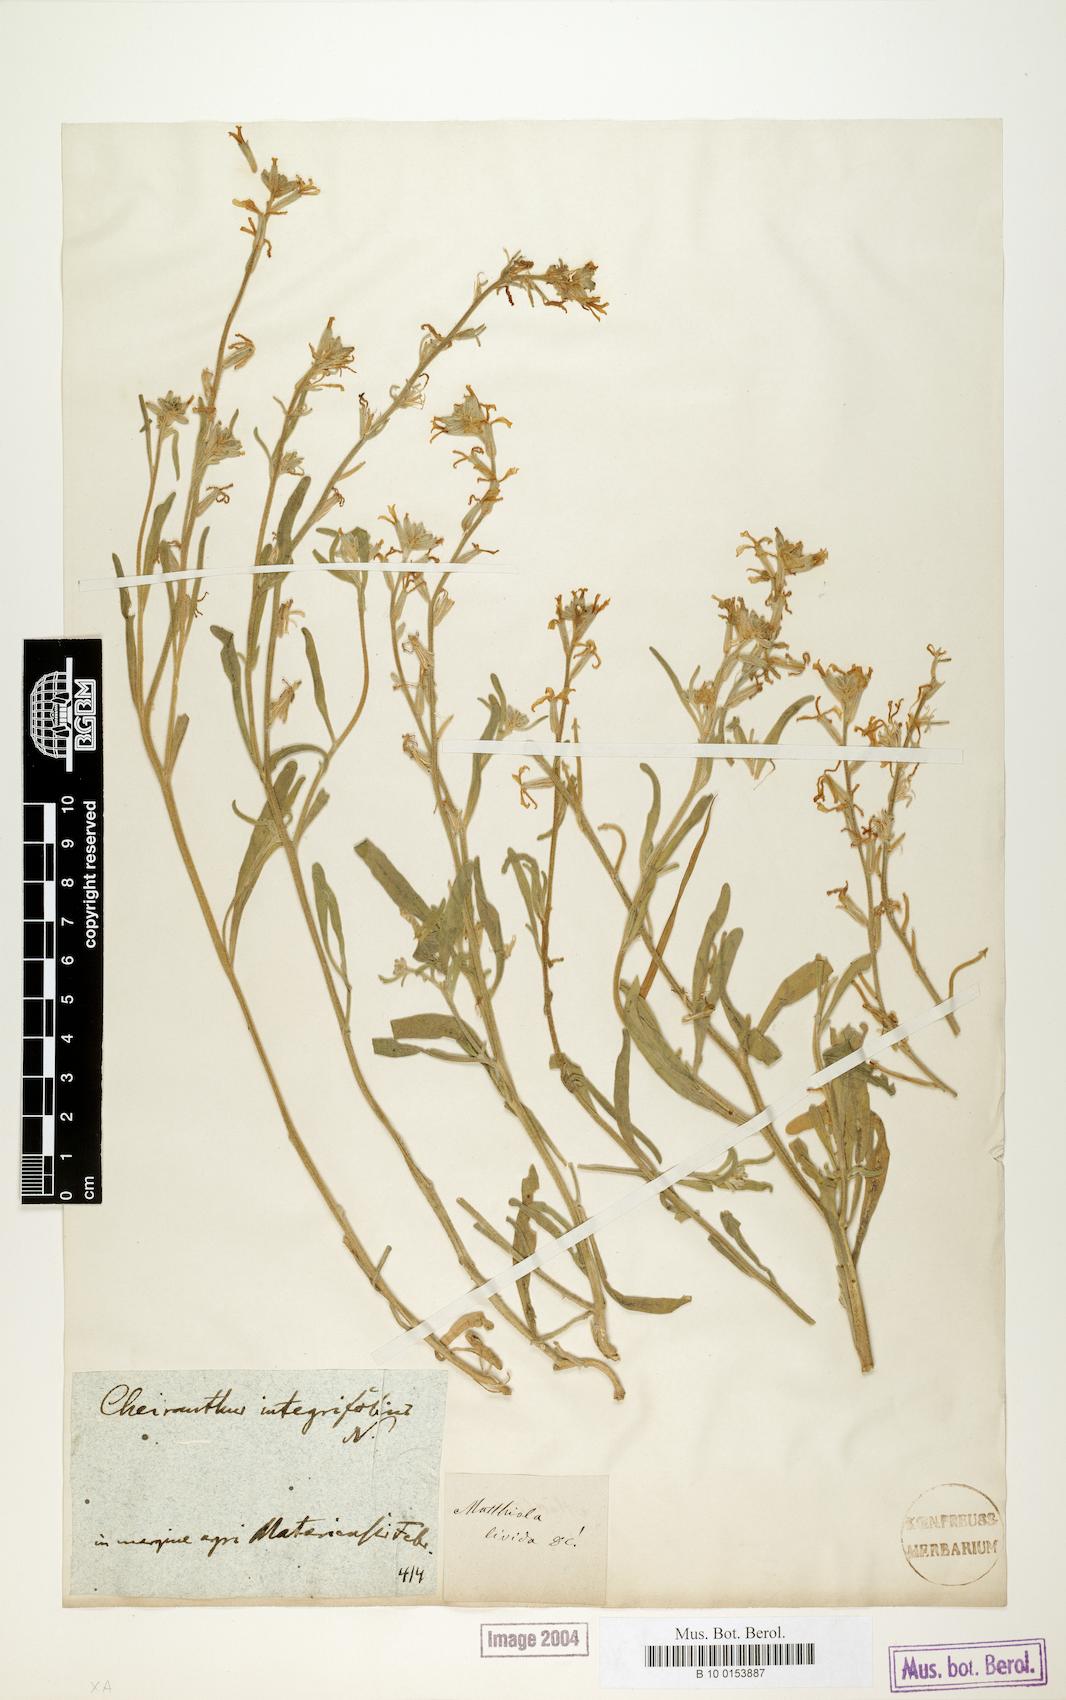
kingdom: Plantae
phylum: Tracheophyta
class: Magnoliopsida
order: Brassicales
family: Brassicaceae
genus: Matthiola
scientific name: Matthiola longipetala
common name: Night-scented stock
